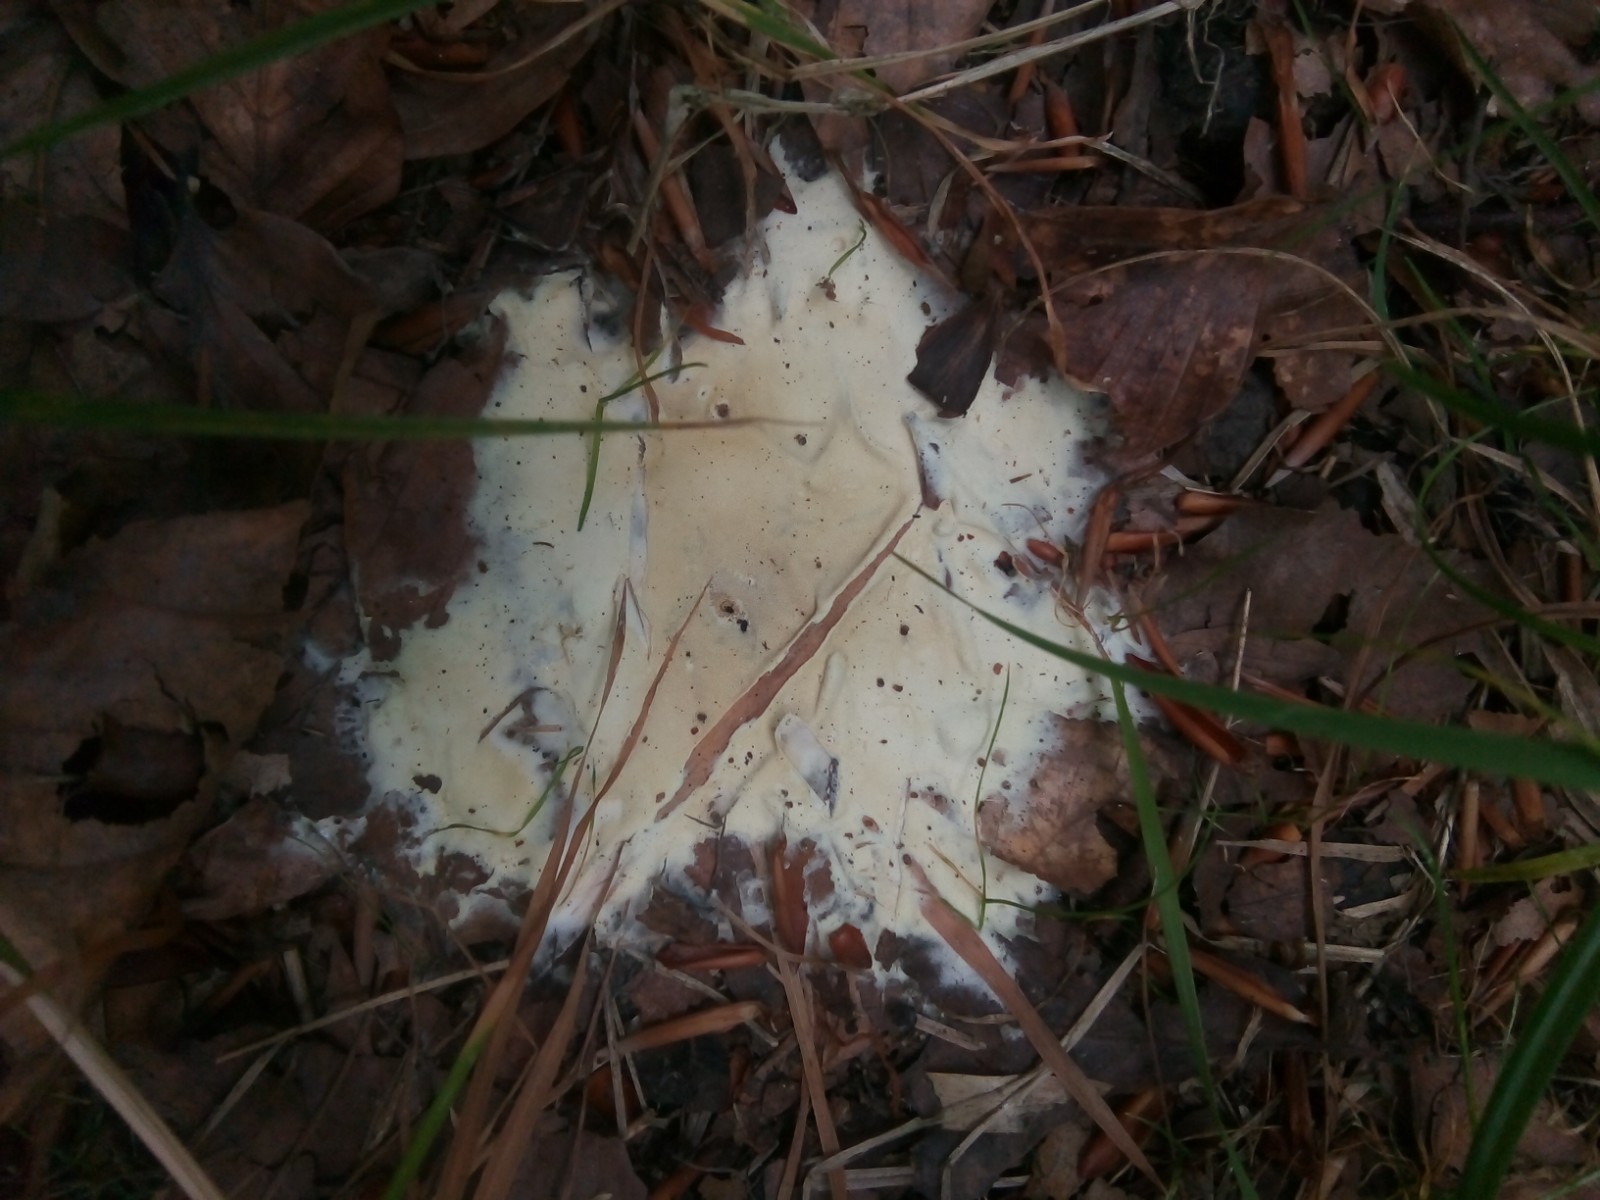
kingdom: Fungi
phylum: Ascomycota
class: Sordariomycetes
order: Hypocreales
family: Hypocreaceae
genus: Trichoderma
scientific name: Trichoderma citrinum
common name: udbredt kødkerne
